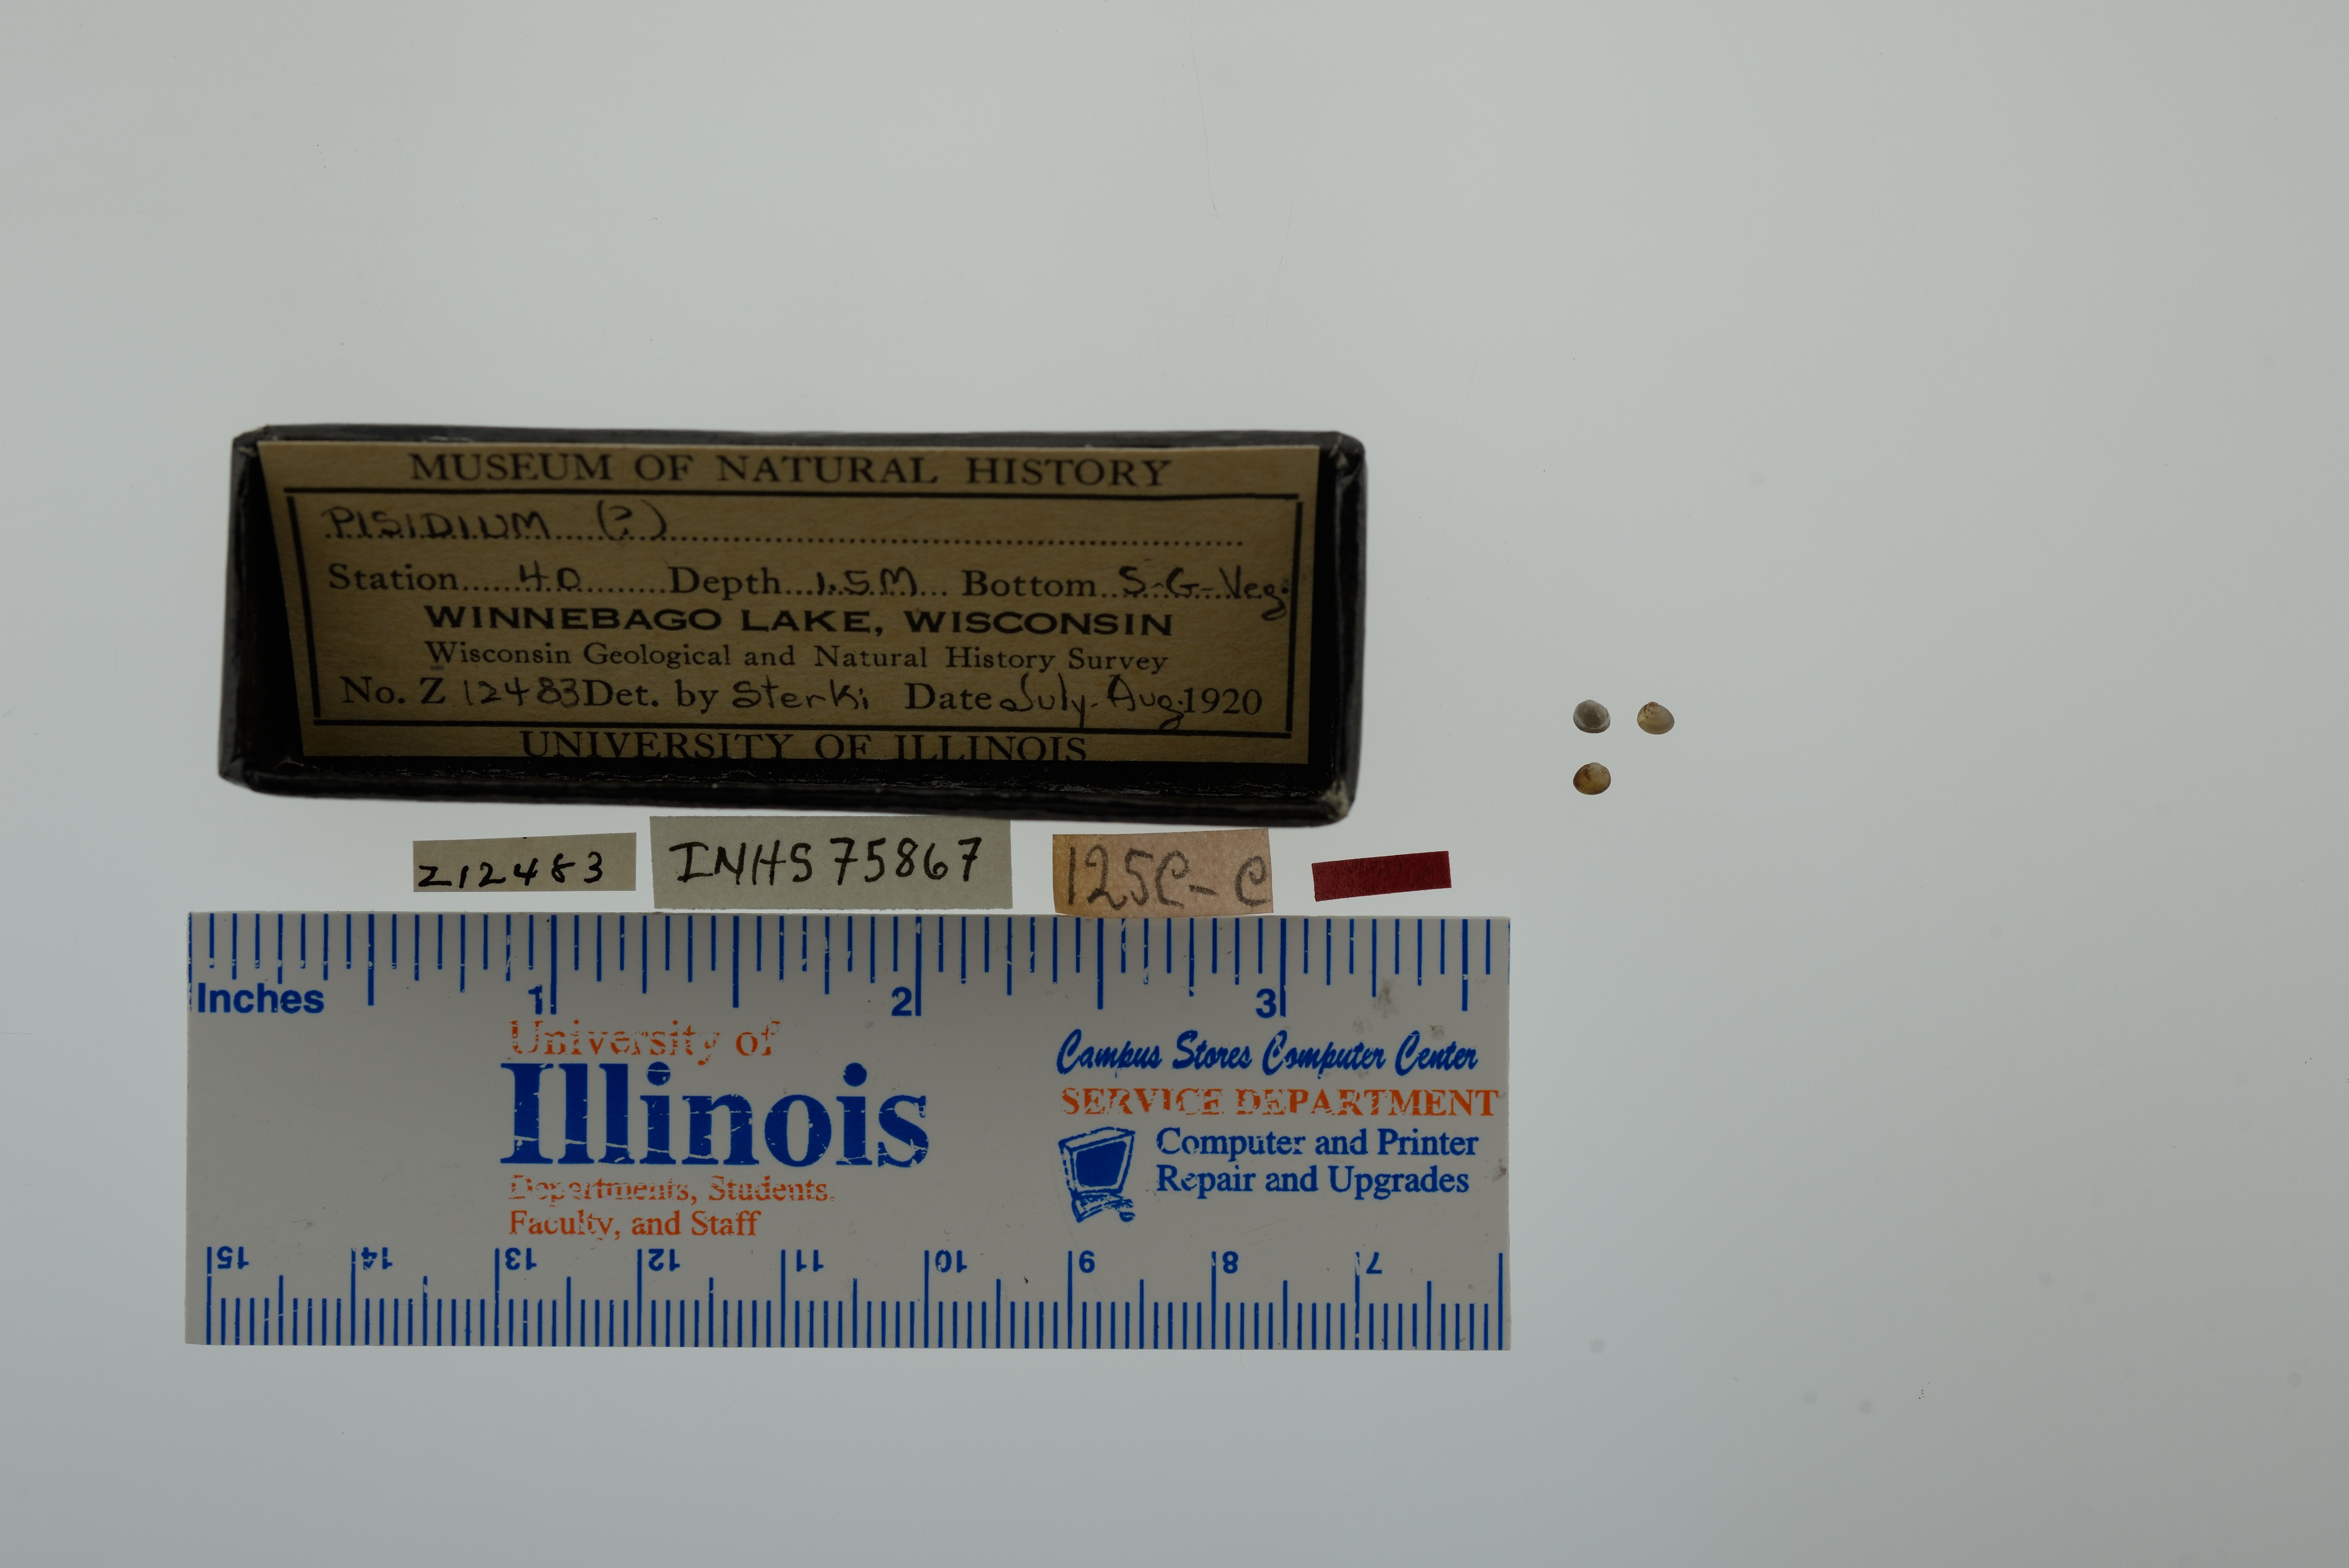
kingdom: Animalia
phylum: Mollusca
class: Bivalvia
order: Sphaeriida
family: Sphaeriidae
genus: Pisidium
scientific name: Pisidium
